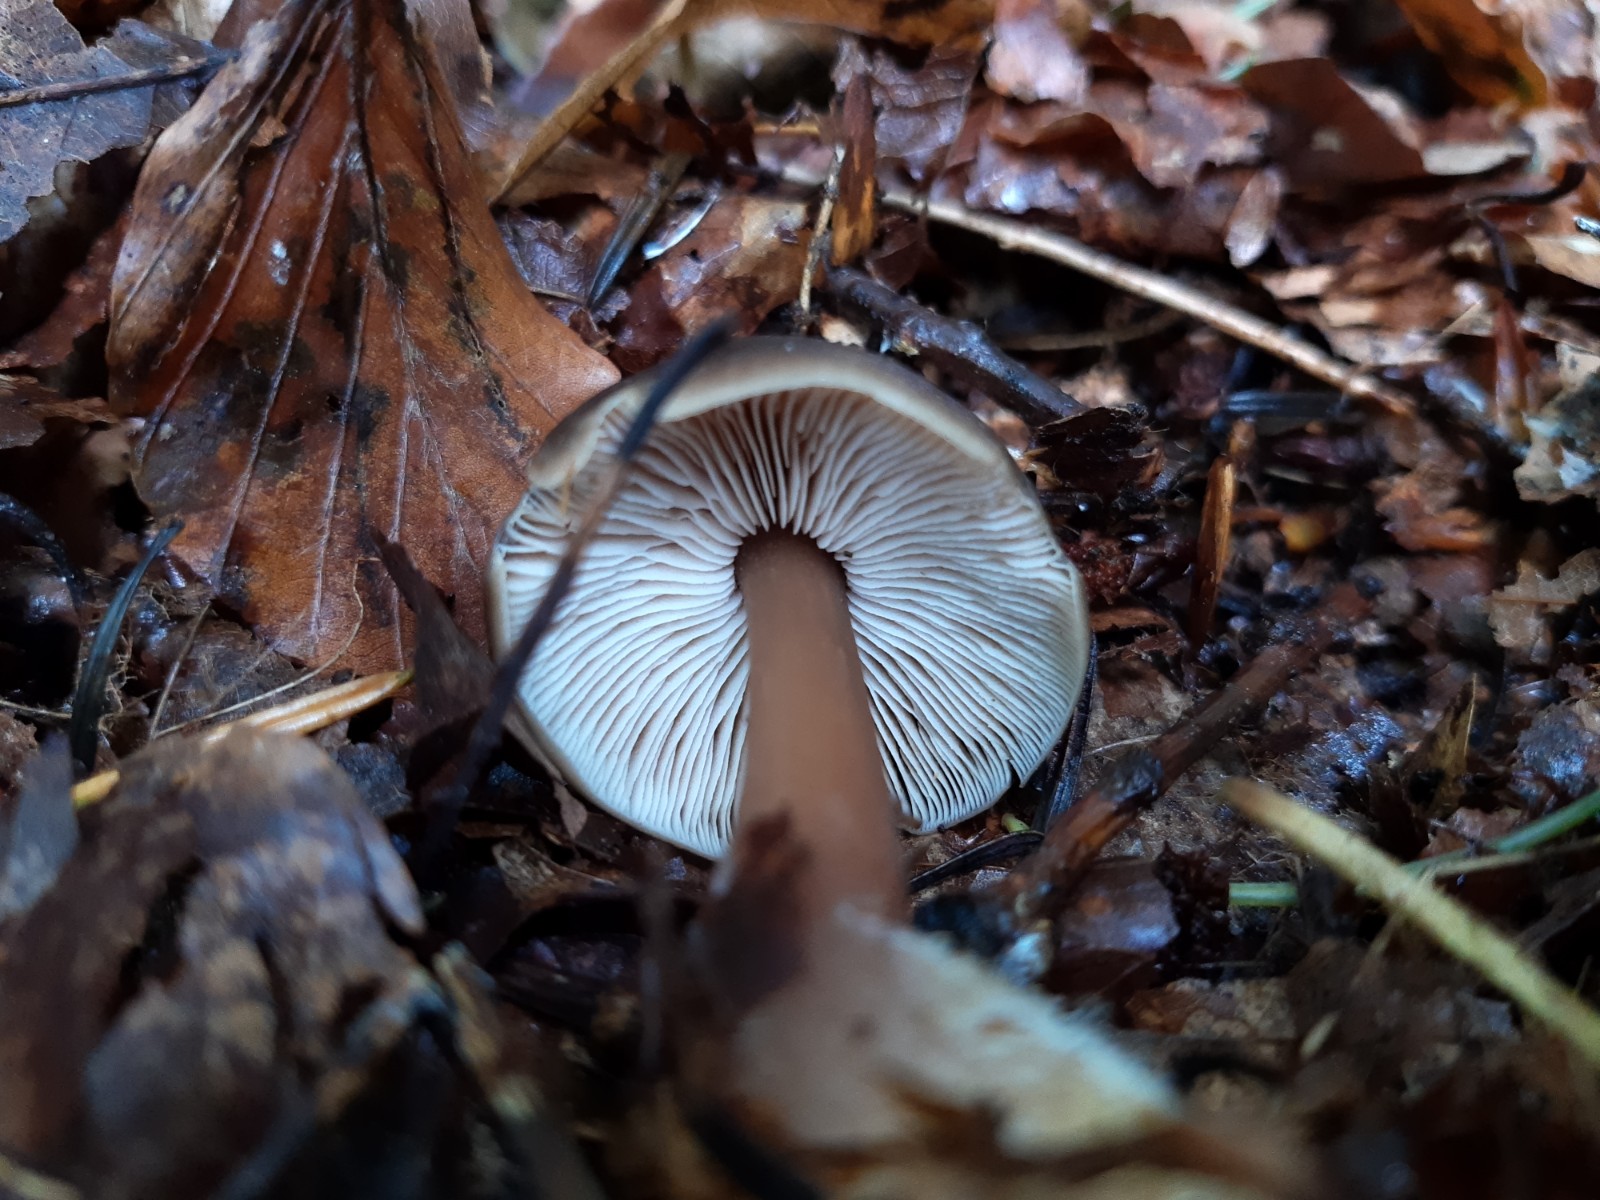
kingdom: Fungi
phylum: Basidiomycota
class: Agaricomycetes
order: Agaricales
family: Omphalotaceae
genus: Rhodocollybia
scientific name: Rhodocollybia asema
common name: horngrå fladhat
